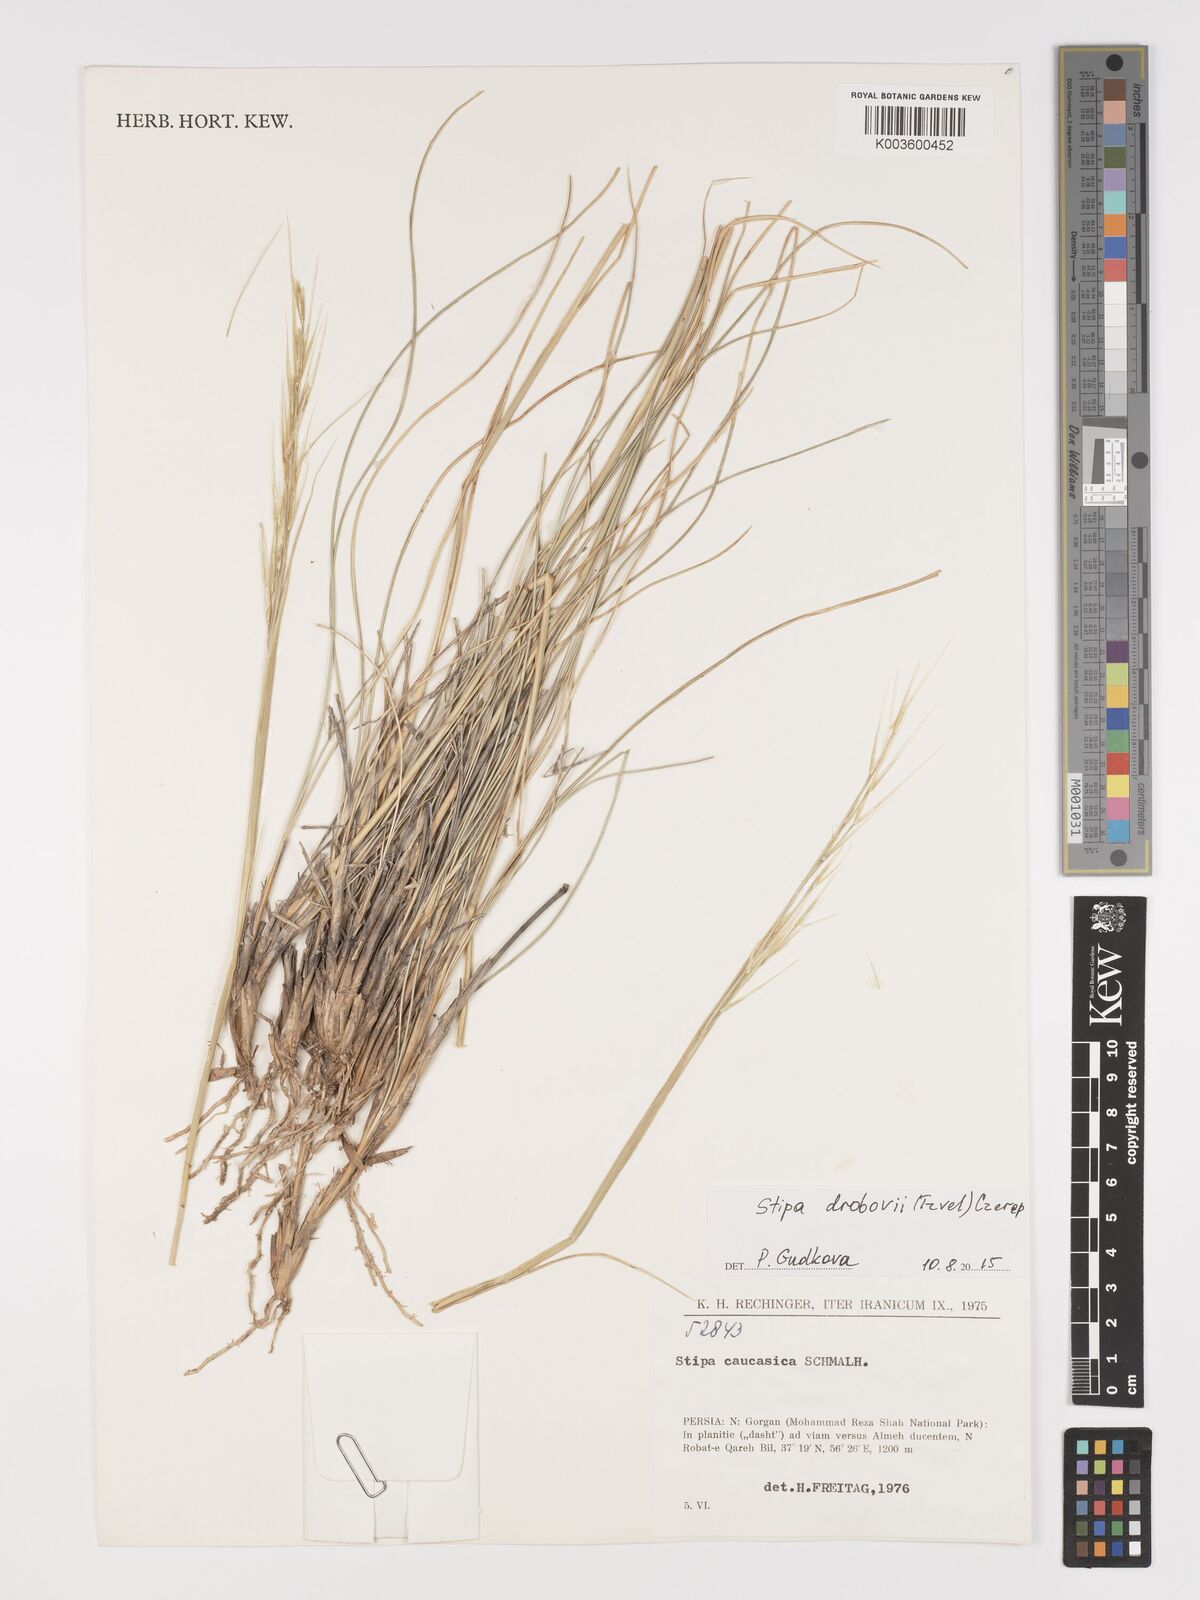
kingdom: Plantae
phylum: Tracheophyta
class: Liliopsida
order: Poales
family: Poaceae
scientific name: Poaceae
